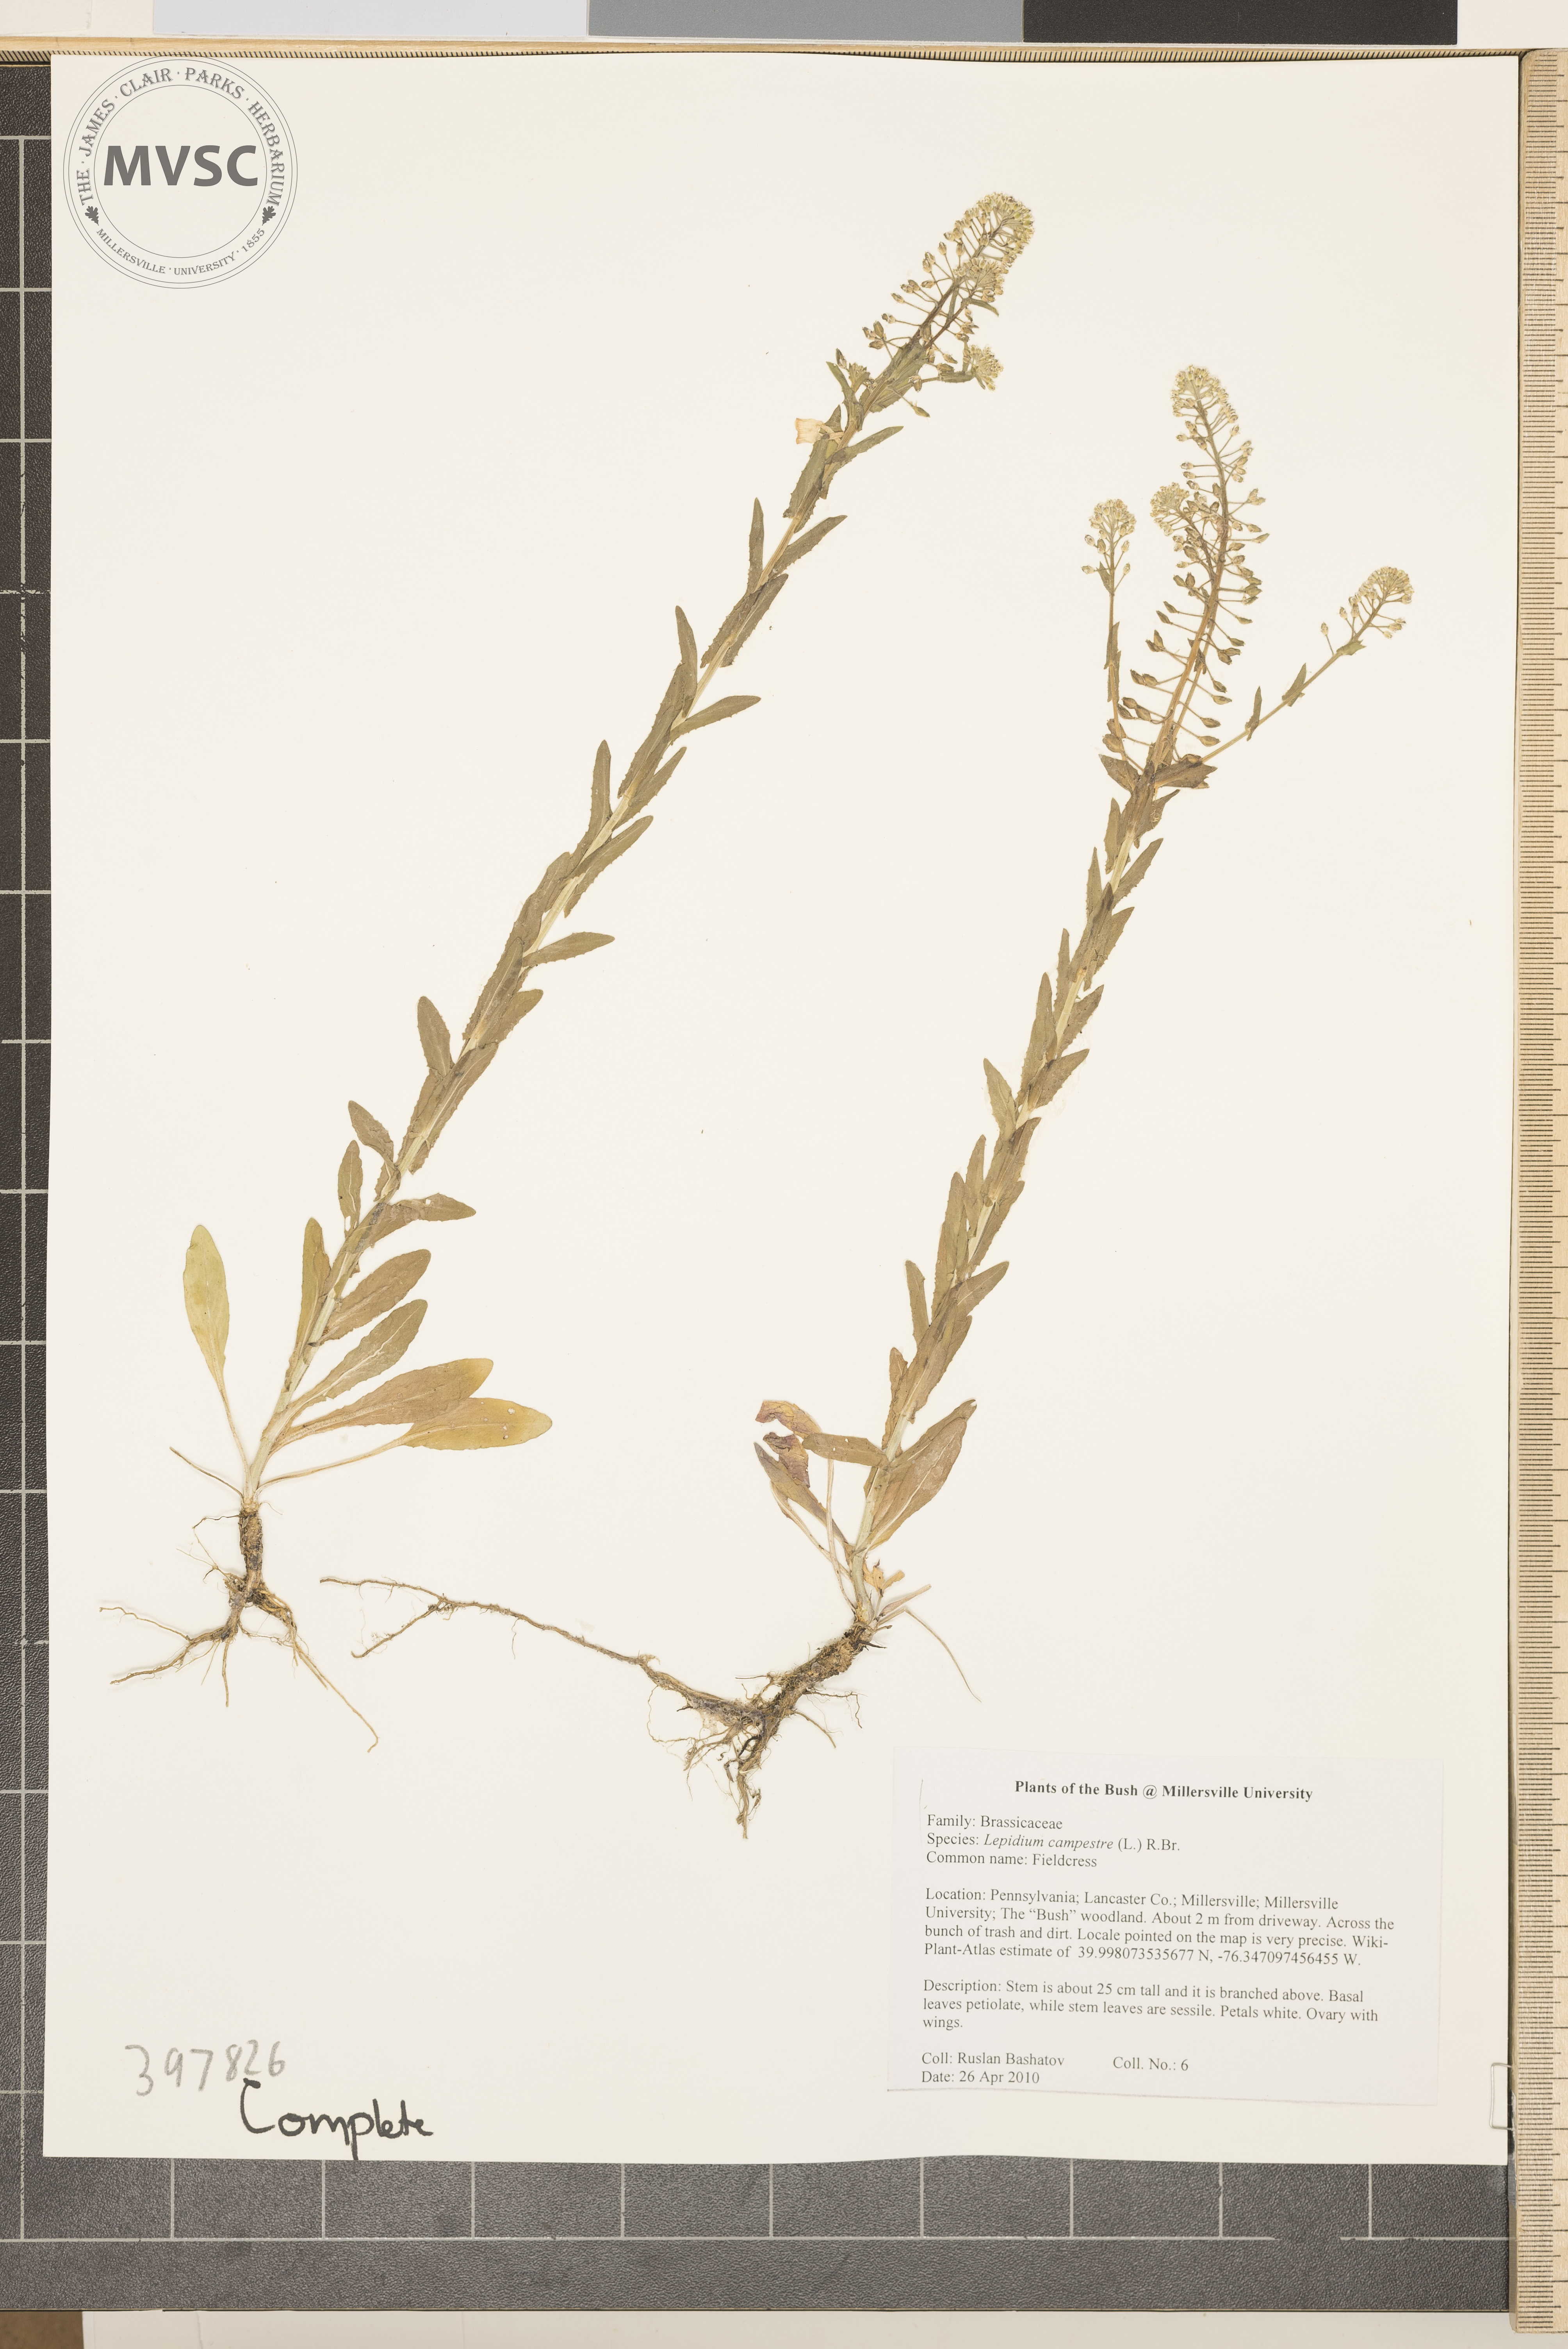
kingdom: Plantae
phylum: Tracheophyta
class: Magnoliopsida
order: Brassicales
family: Brassicaceae
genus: Lepidium
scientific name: Lepidium campestre
